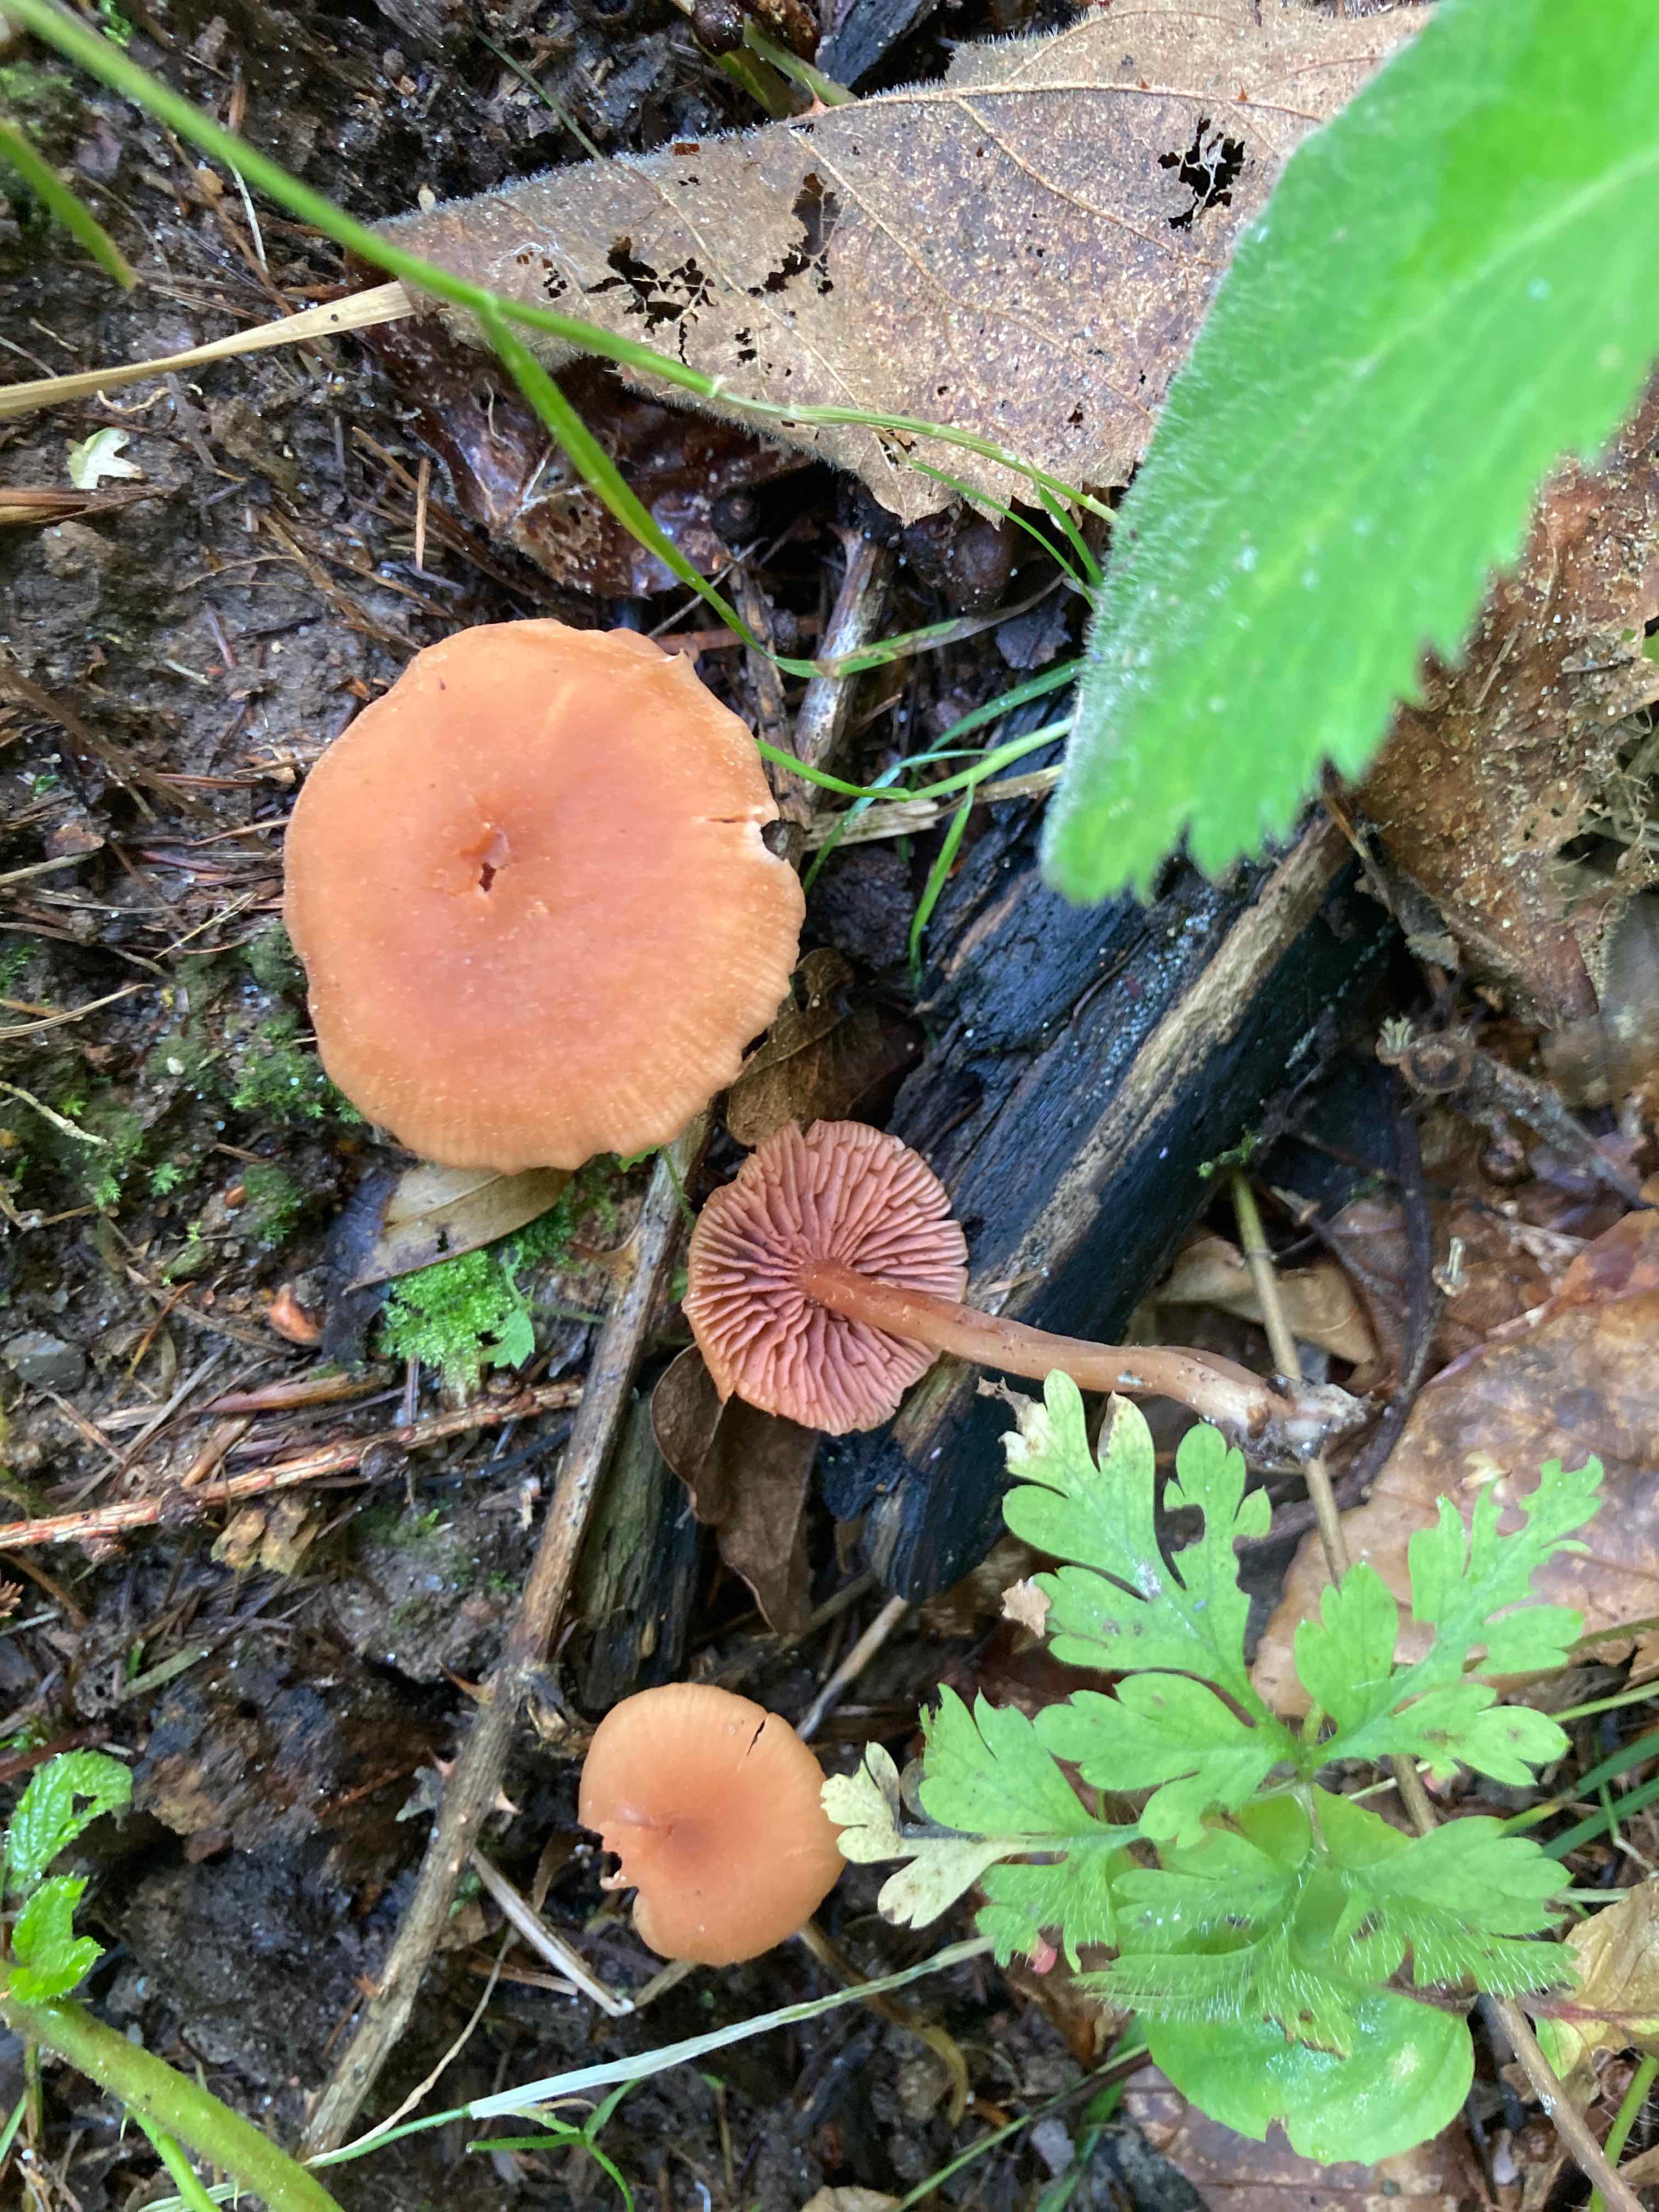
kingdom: Fungi
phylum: Basidiomycota
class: Agaricomycetes
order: Agaricales
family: Hydnangiaceae
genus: Laccaria
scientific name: Laccaria laccata
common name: rød ametysthat
